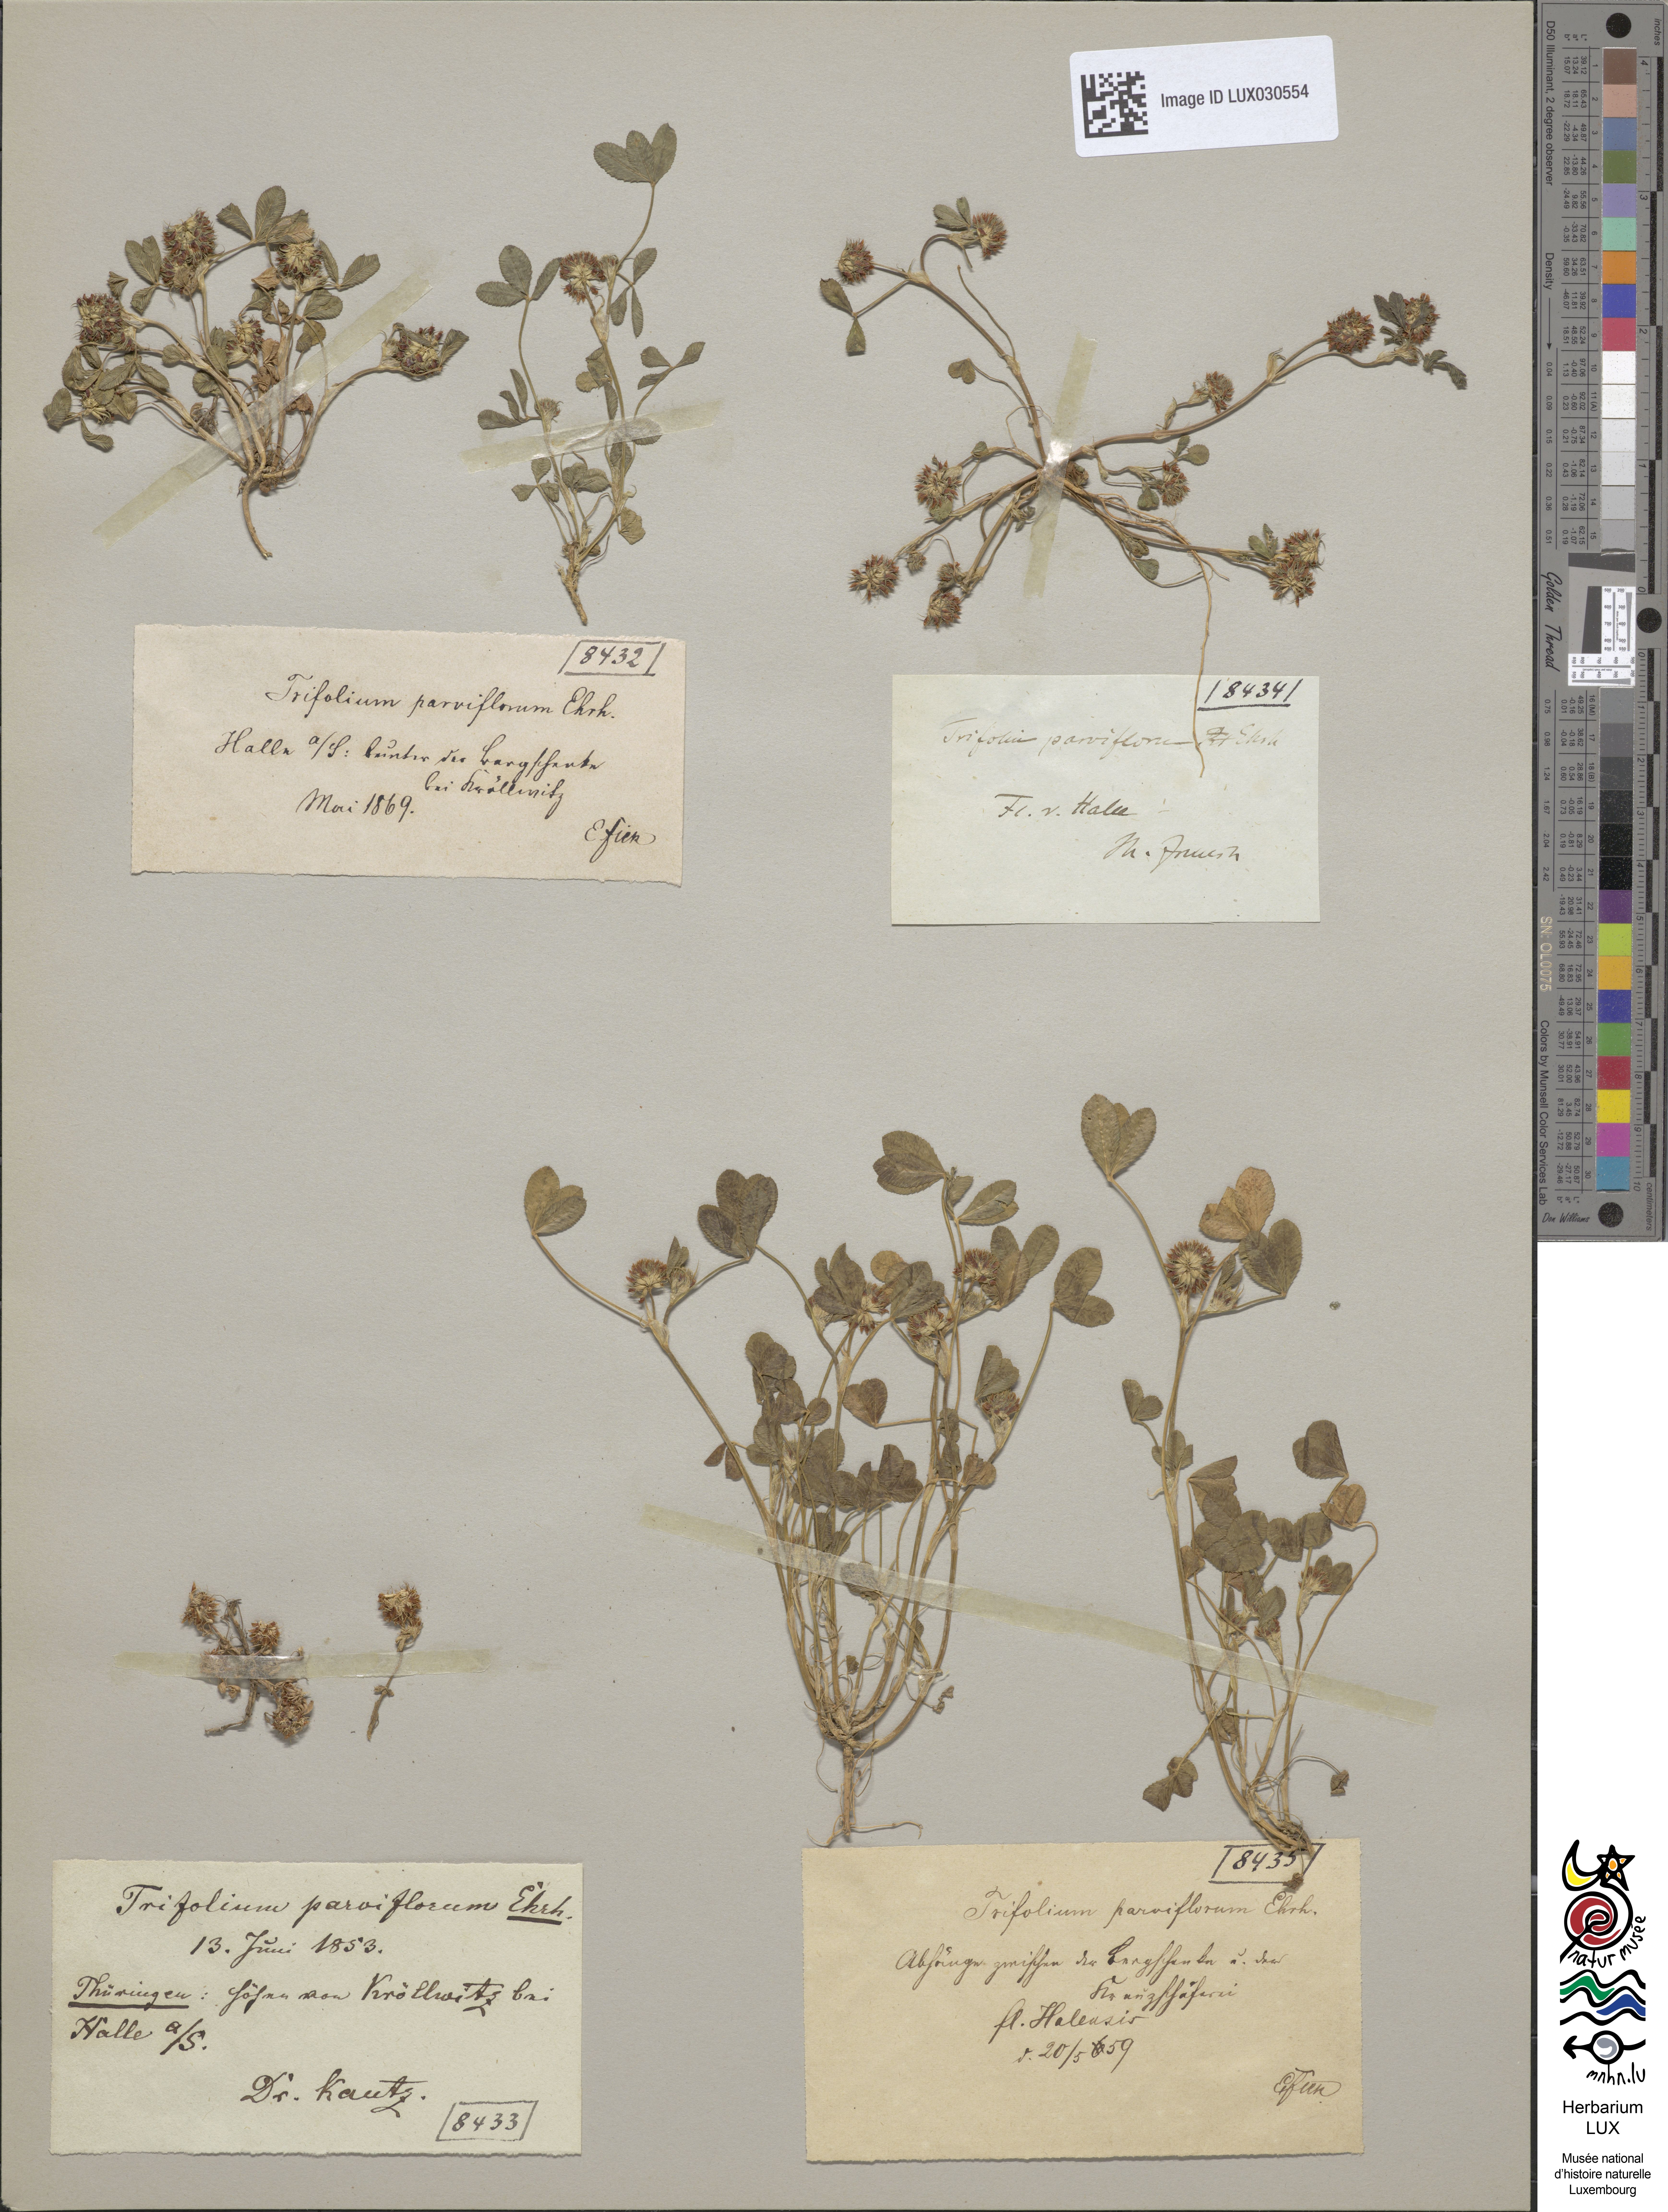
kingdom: Plantae
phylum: Tracheophyta
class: Magnoliopsida
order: Fabales
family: Fabaceae
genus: Trifolium
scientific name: Trifolium retusum
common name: Teasel clover
